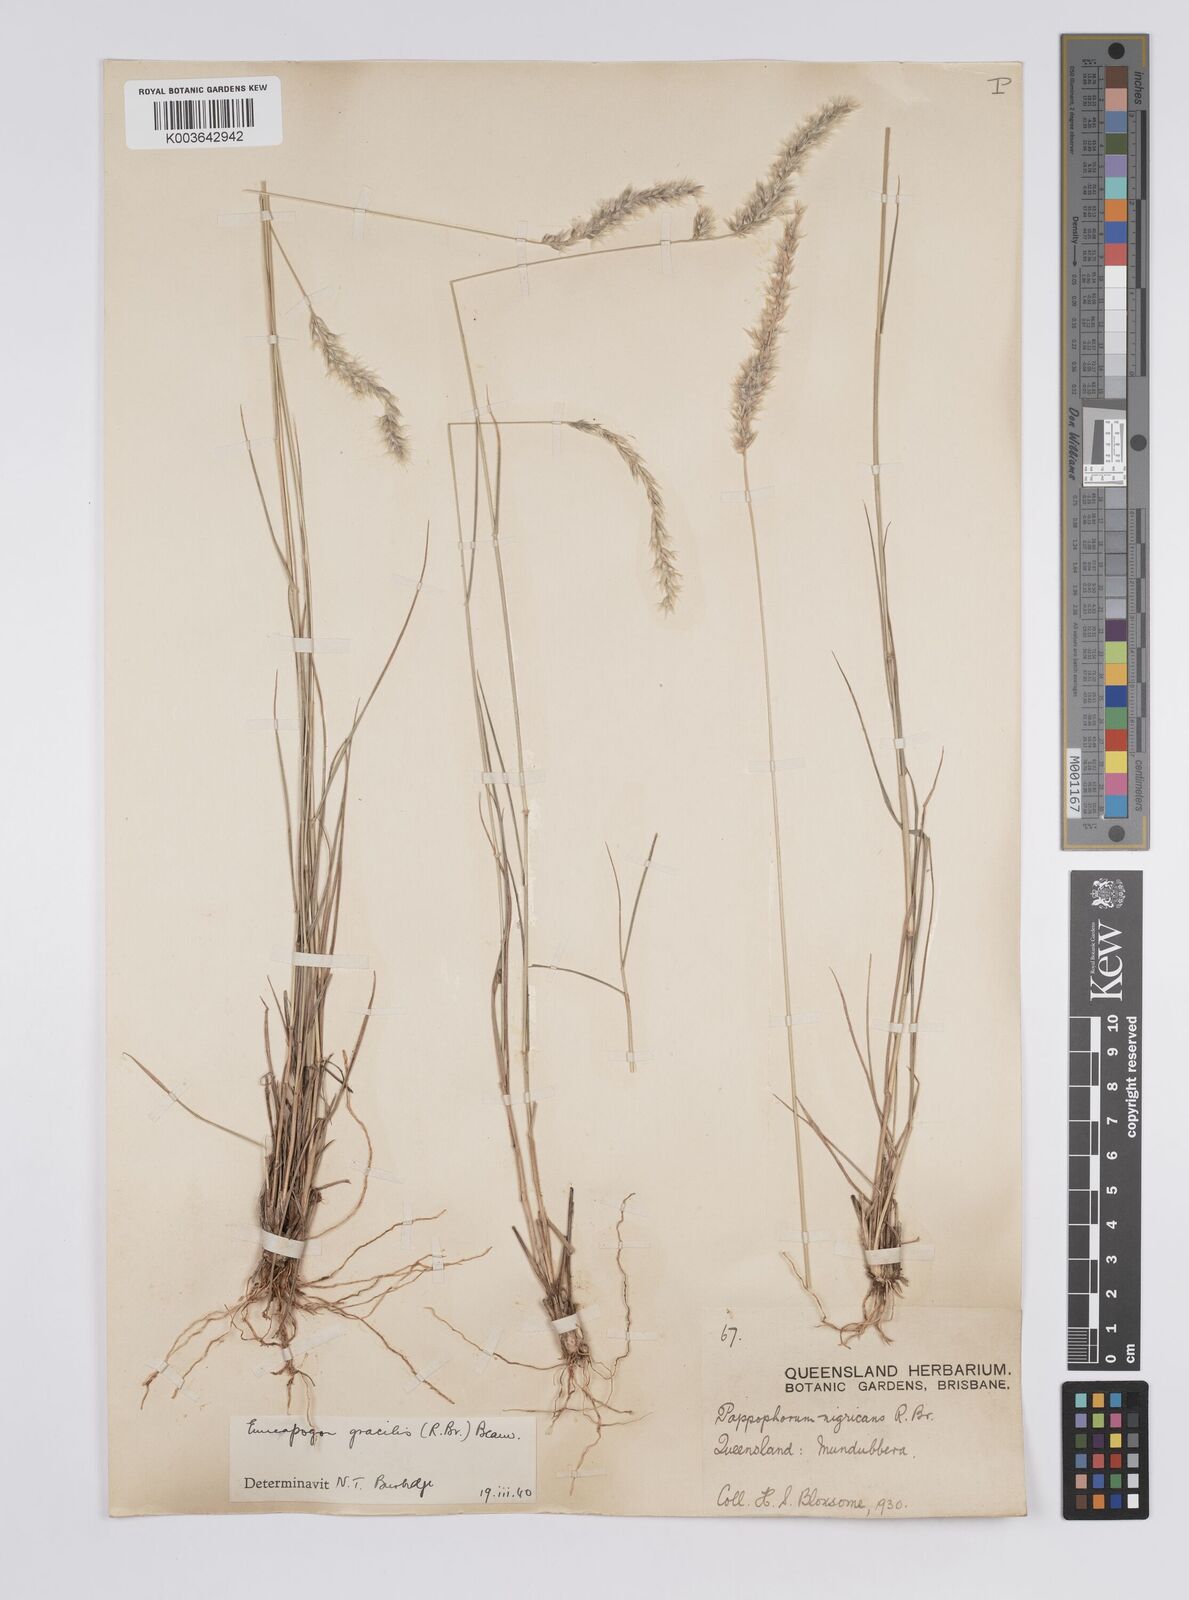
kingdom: Plantae
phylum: Tracheophyta
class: Liliopsida
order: Poales
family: Poaceae
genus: Enneapogon
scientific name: Enneapogon gracilis
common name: Slender bottle-washers
